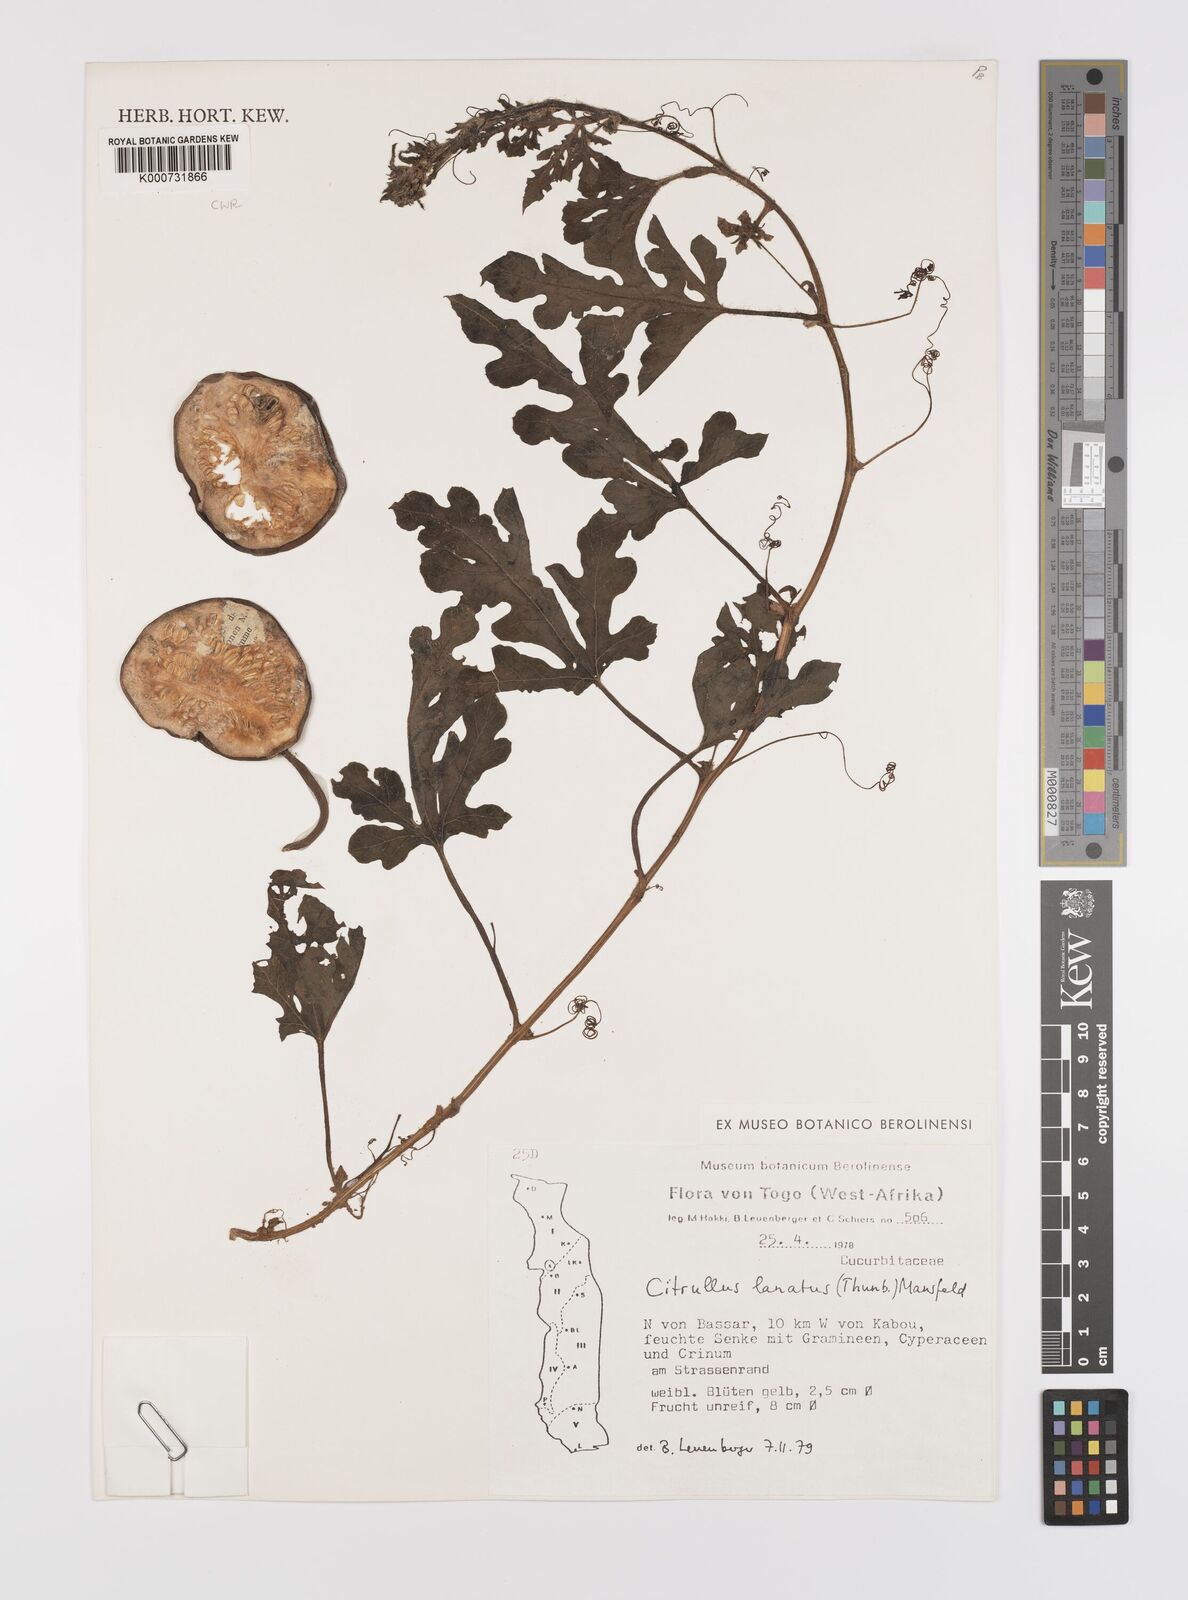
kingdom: Plantae
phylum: Tracheophyta
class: Magnoliopsida
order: Cucurbitales
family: Cucurbitaceae
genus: Citrullus
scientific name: Citrullus lanatus
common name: Watermelon
